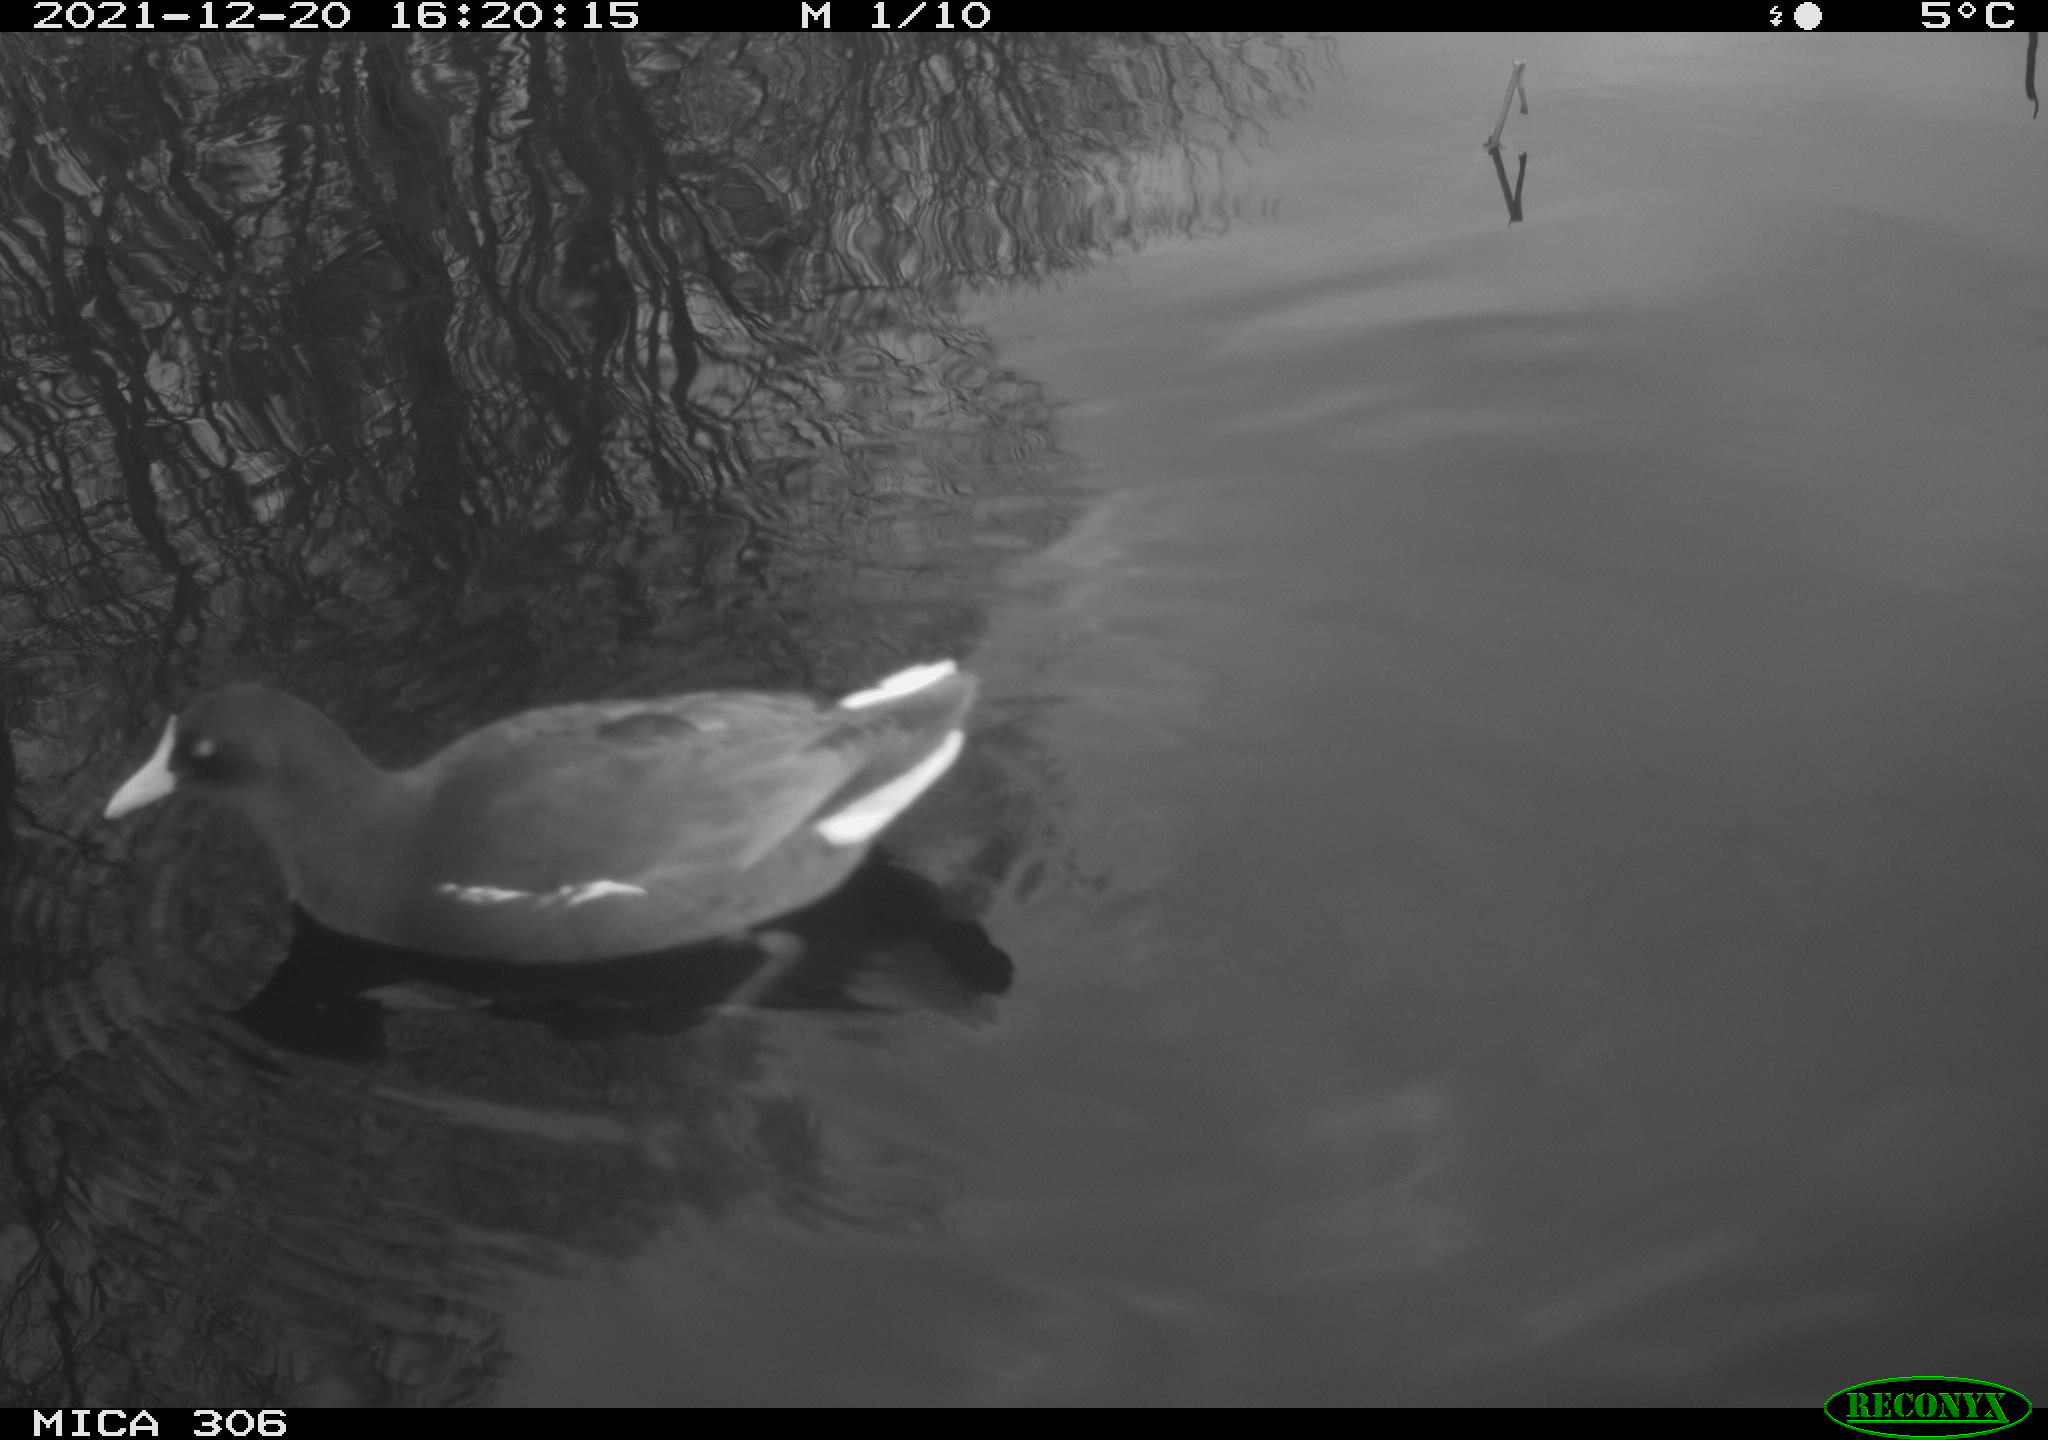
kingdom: Animalia
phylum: Chordata
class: Aves
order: Gruiformes
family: Rallidae
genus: Gallinula
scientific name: Gallinula chloropus
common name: Common moorhen
